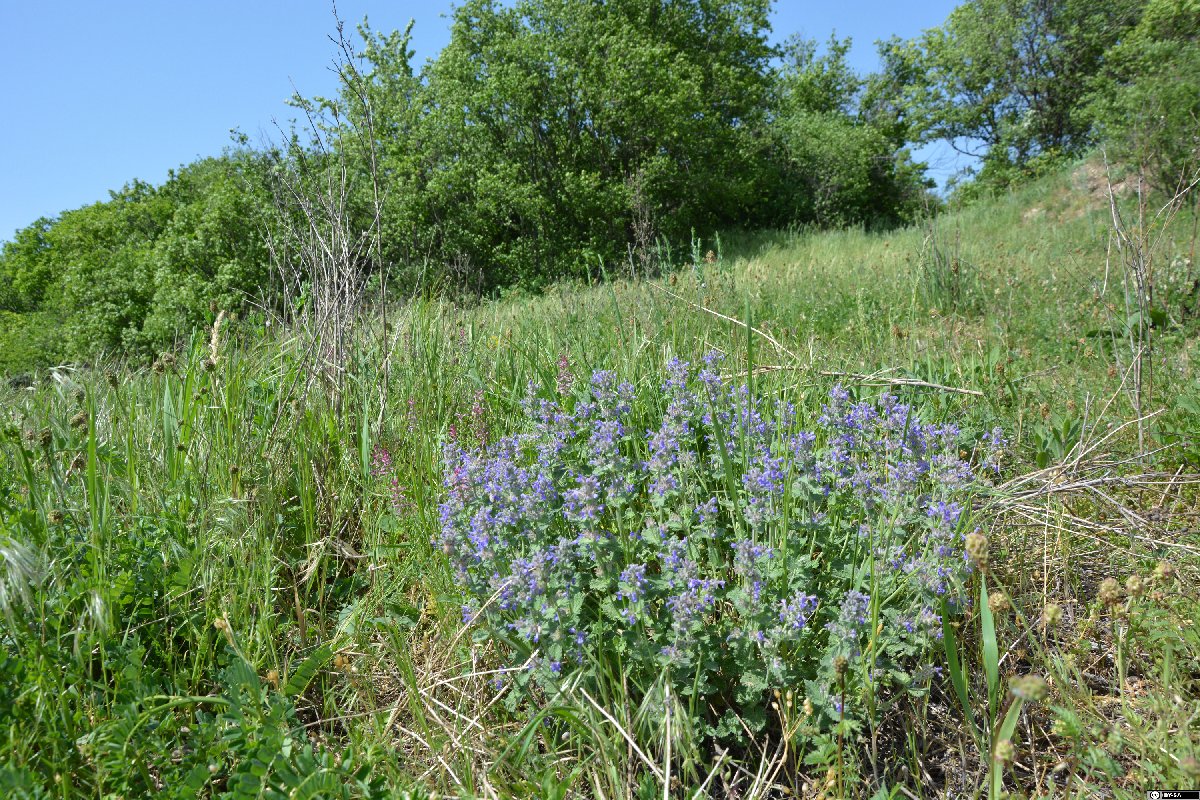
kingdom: Plantae
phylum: Tracheophyta
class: Magnoliopsida
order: Lamiales
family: Lamiaceae
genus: Nepeta
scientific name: Nepeta racemosa
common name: Raceme catnip
